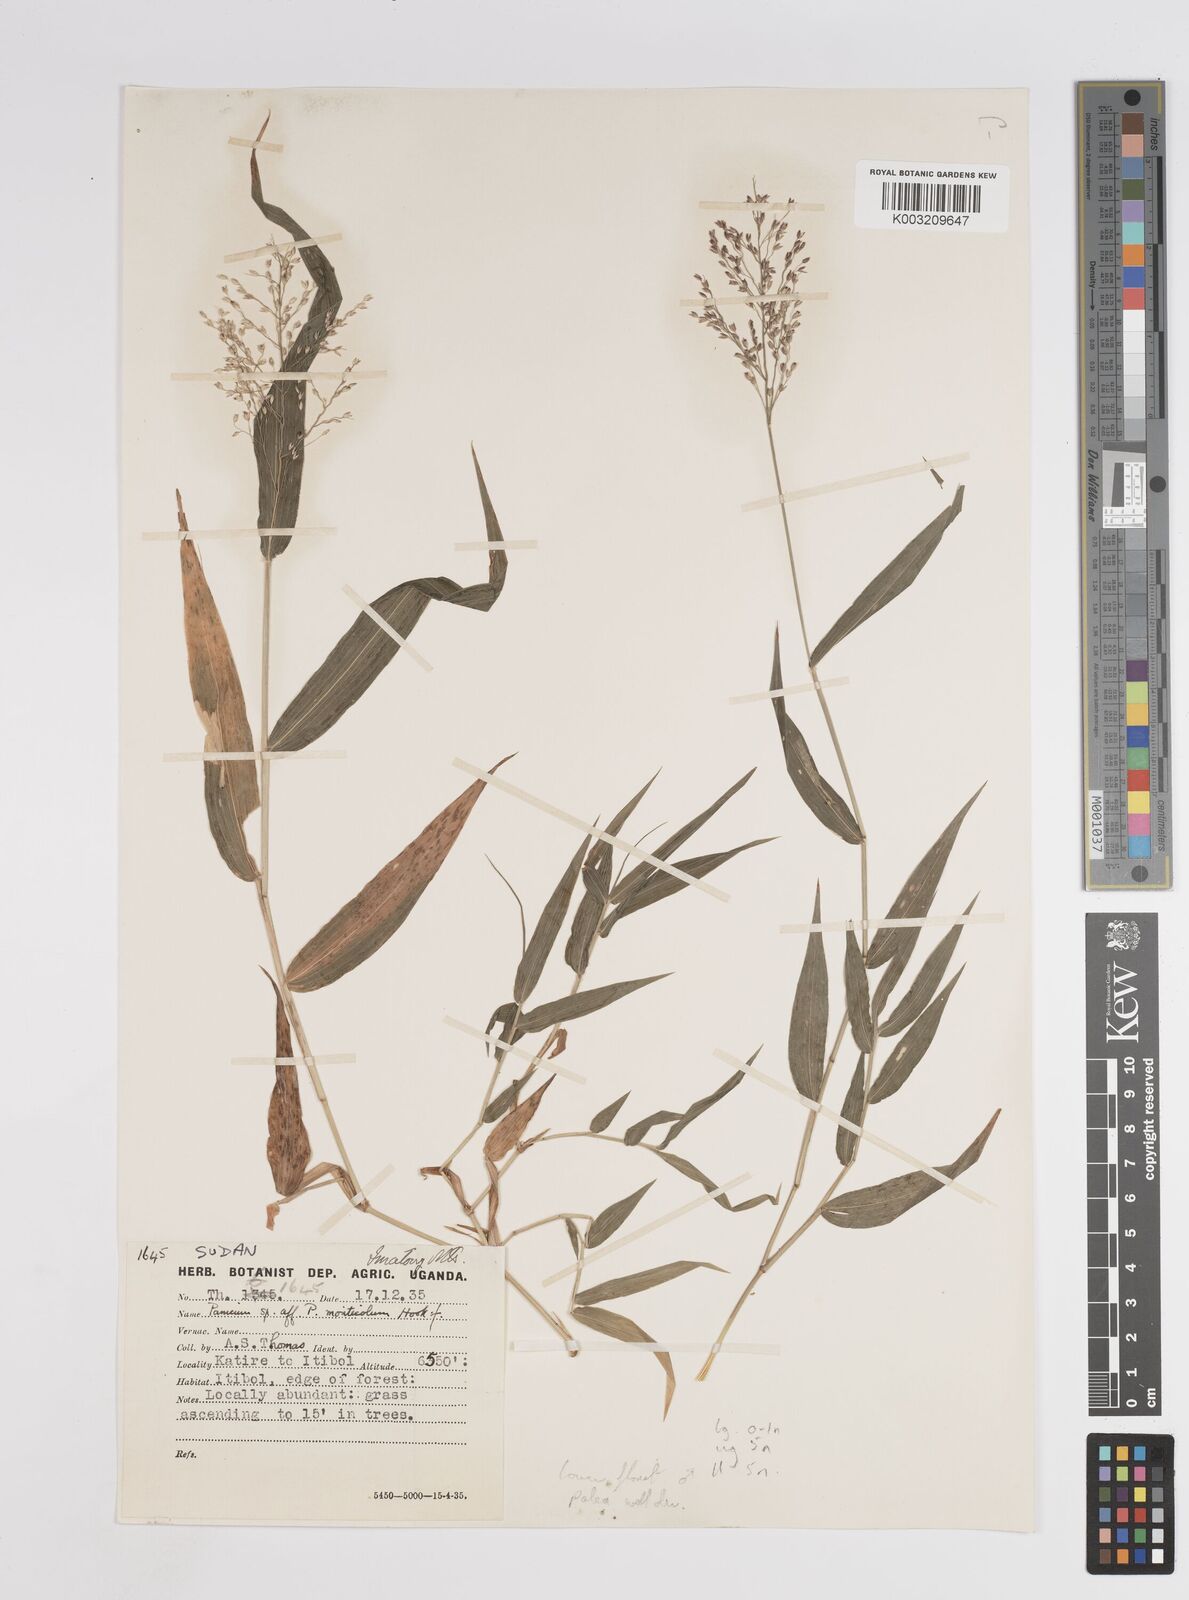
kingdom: Plantae
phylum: Tracheophyta
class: Liliopsida
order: Poales
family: Poaceae
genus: Panicum
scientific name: Panicum
